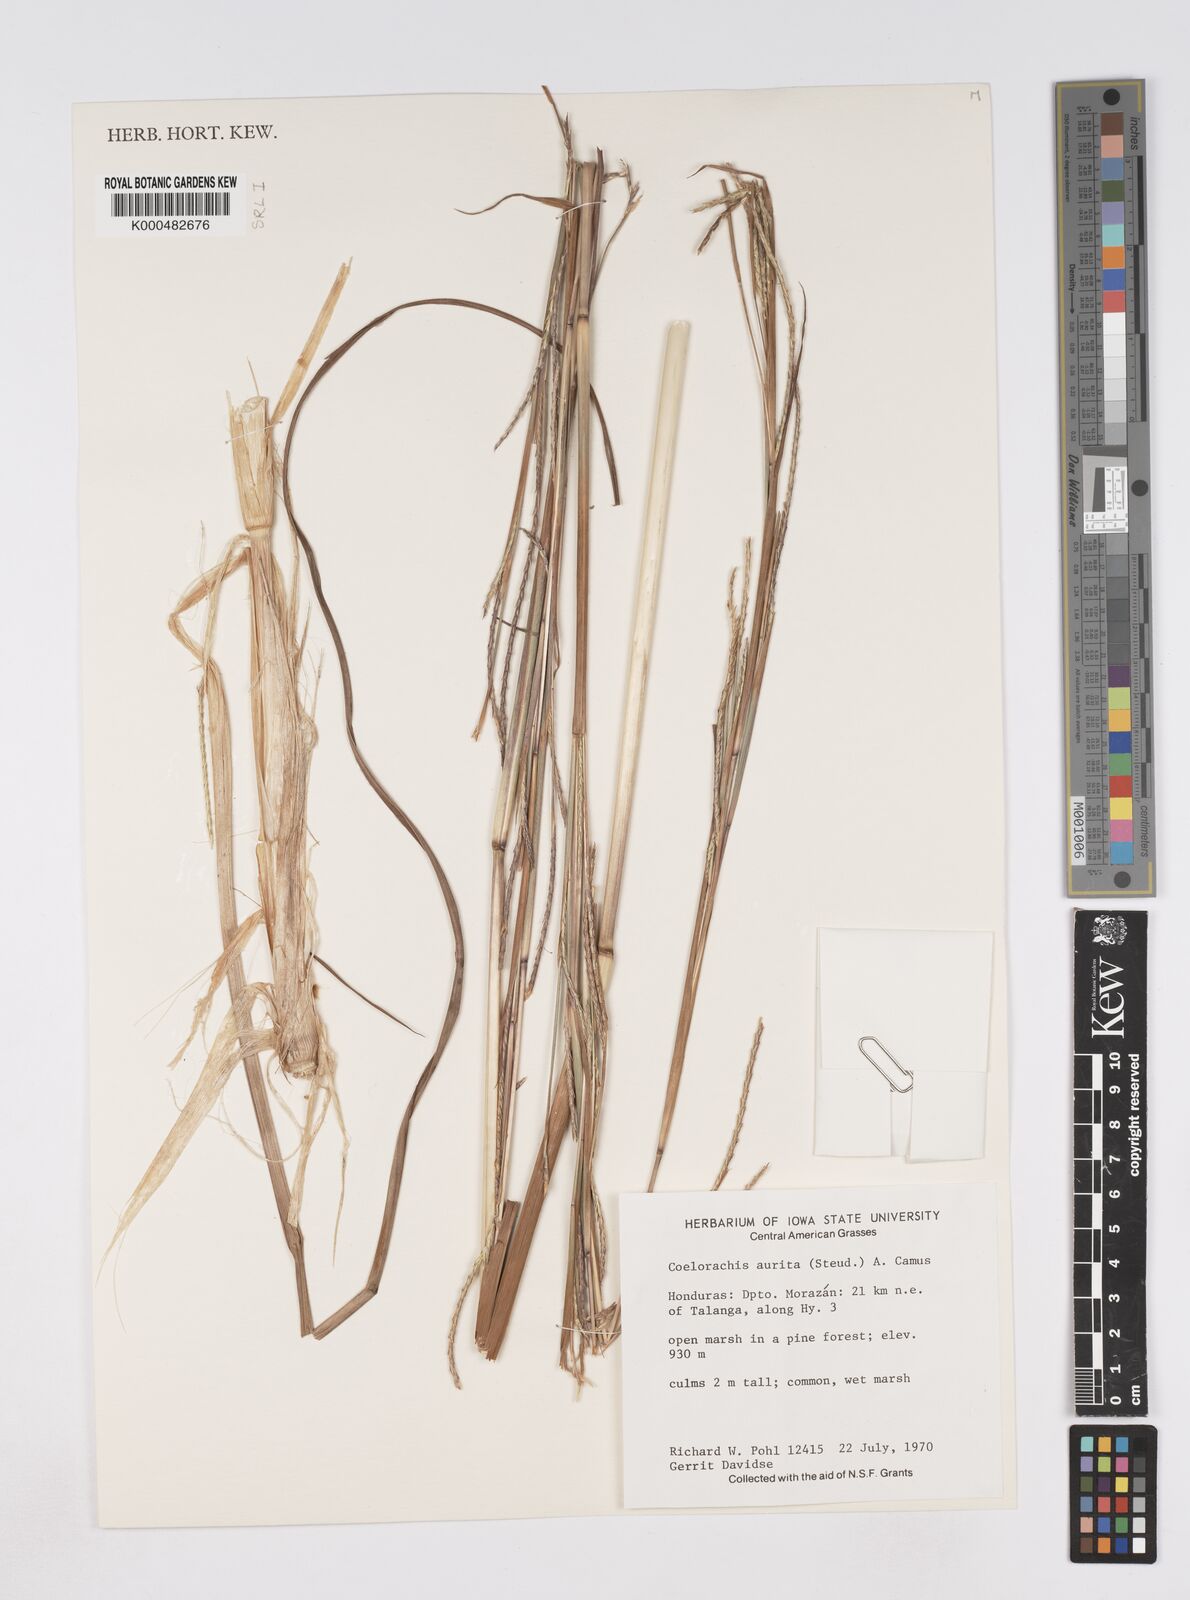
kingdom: Plantae
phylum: Tracheophyta
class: Liliopsida
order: Poales
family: Poaceae
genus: Rottboellia
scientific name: Rottboellia aurita
